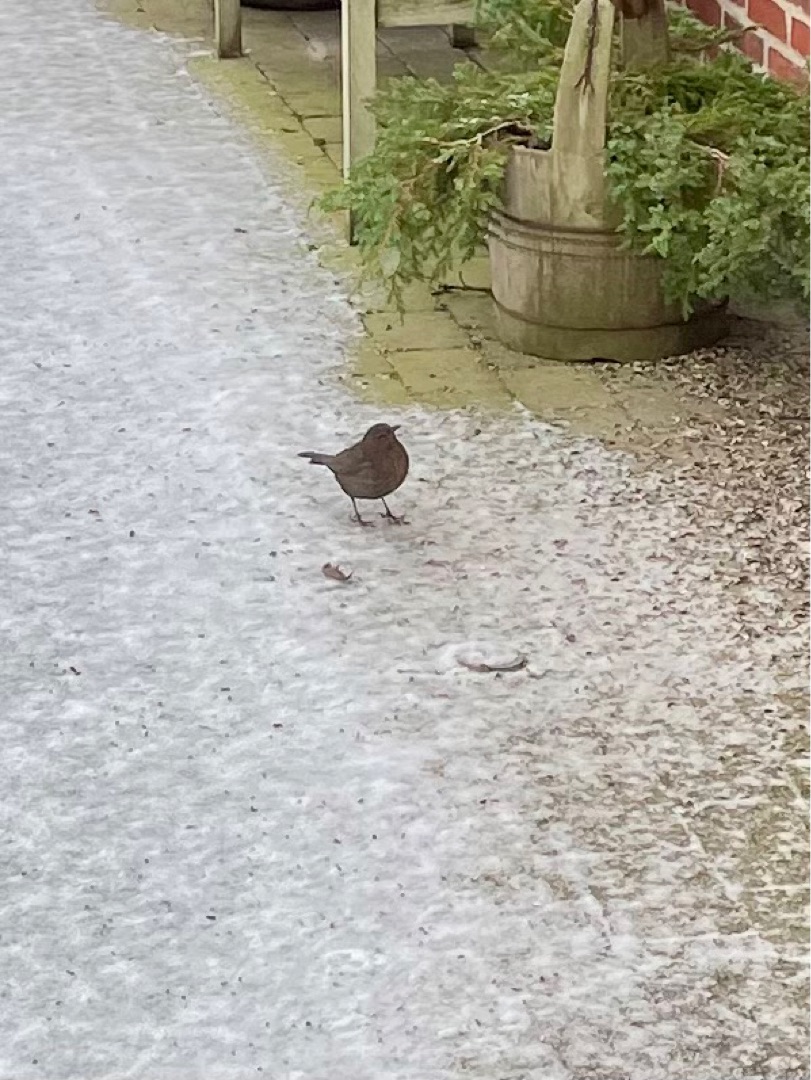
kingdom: Animalia
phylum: Chordata
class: Aves
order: Passeriformes
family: Turdidae
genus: Turdus
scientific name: Turdus merula
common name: Solsort
